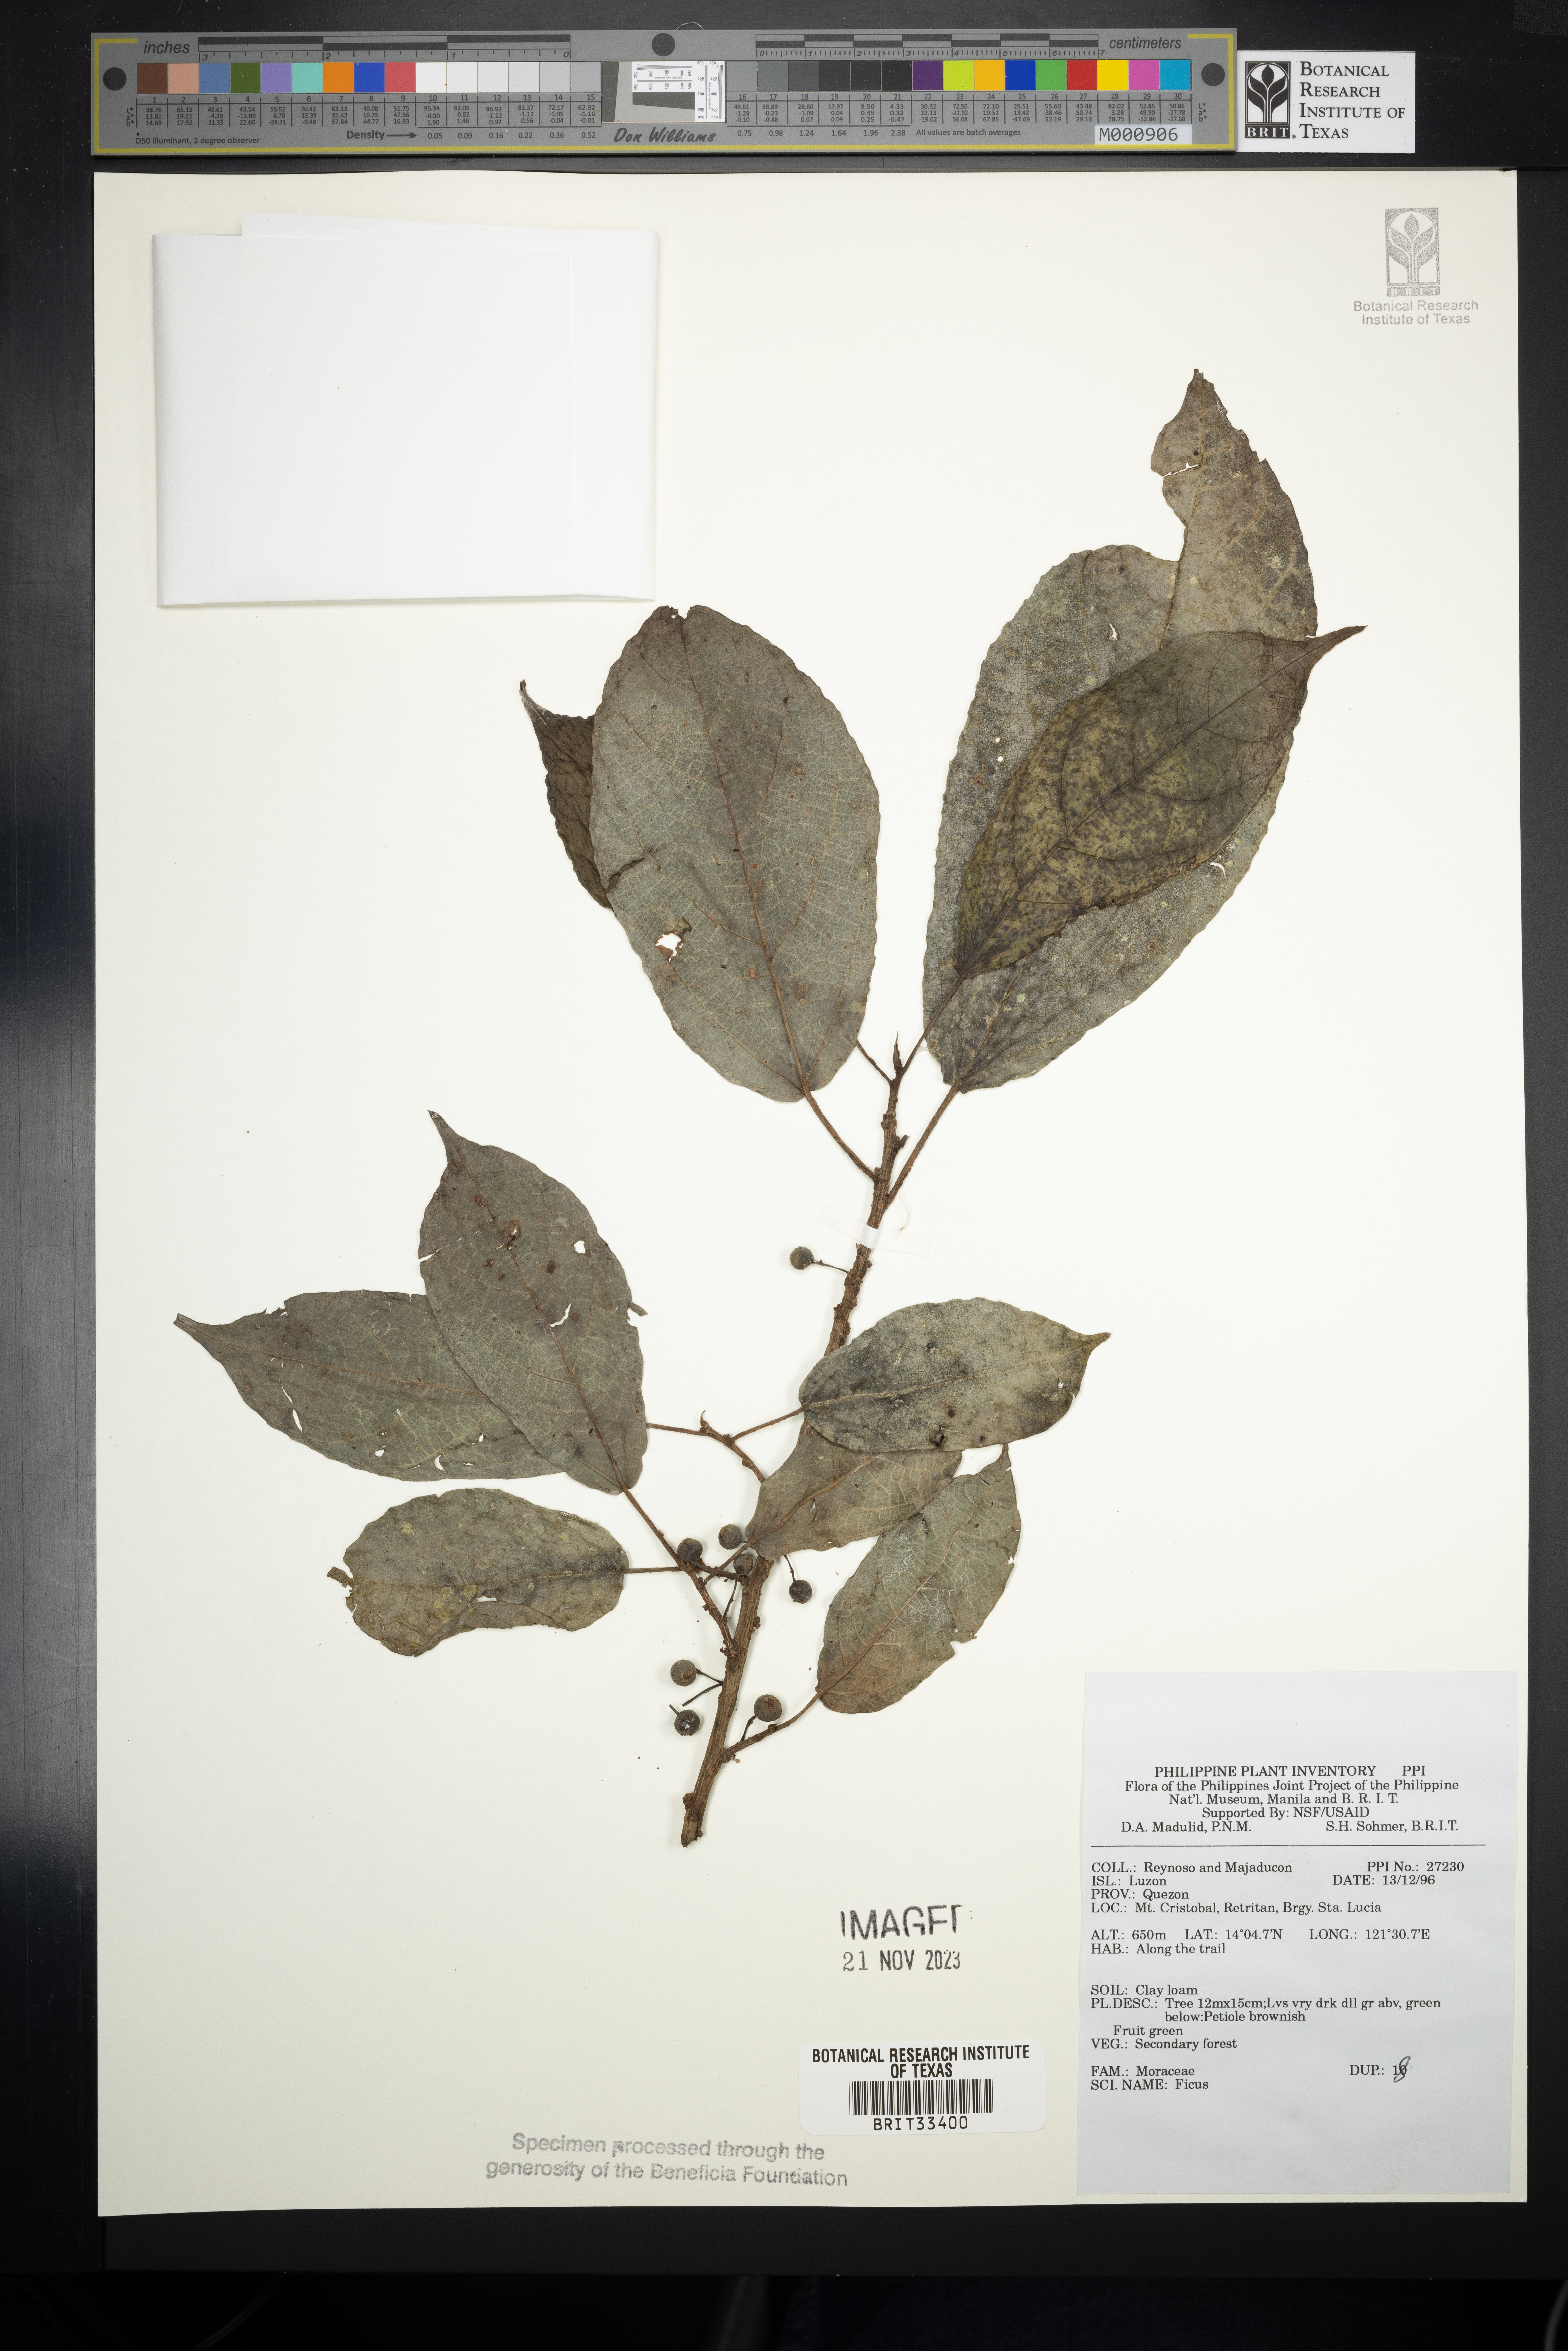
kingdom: Plantae
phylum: Tracheophyta
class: Magnoliopsida
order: Rosales
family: Moraceae
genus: Ficus
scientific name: Ficus
